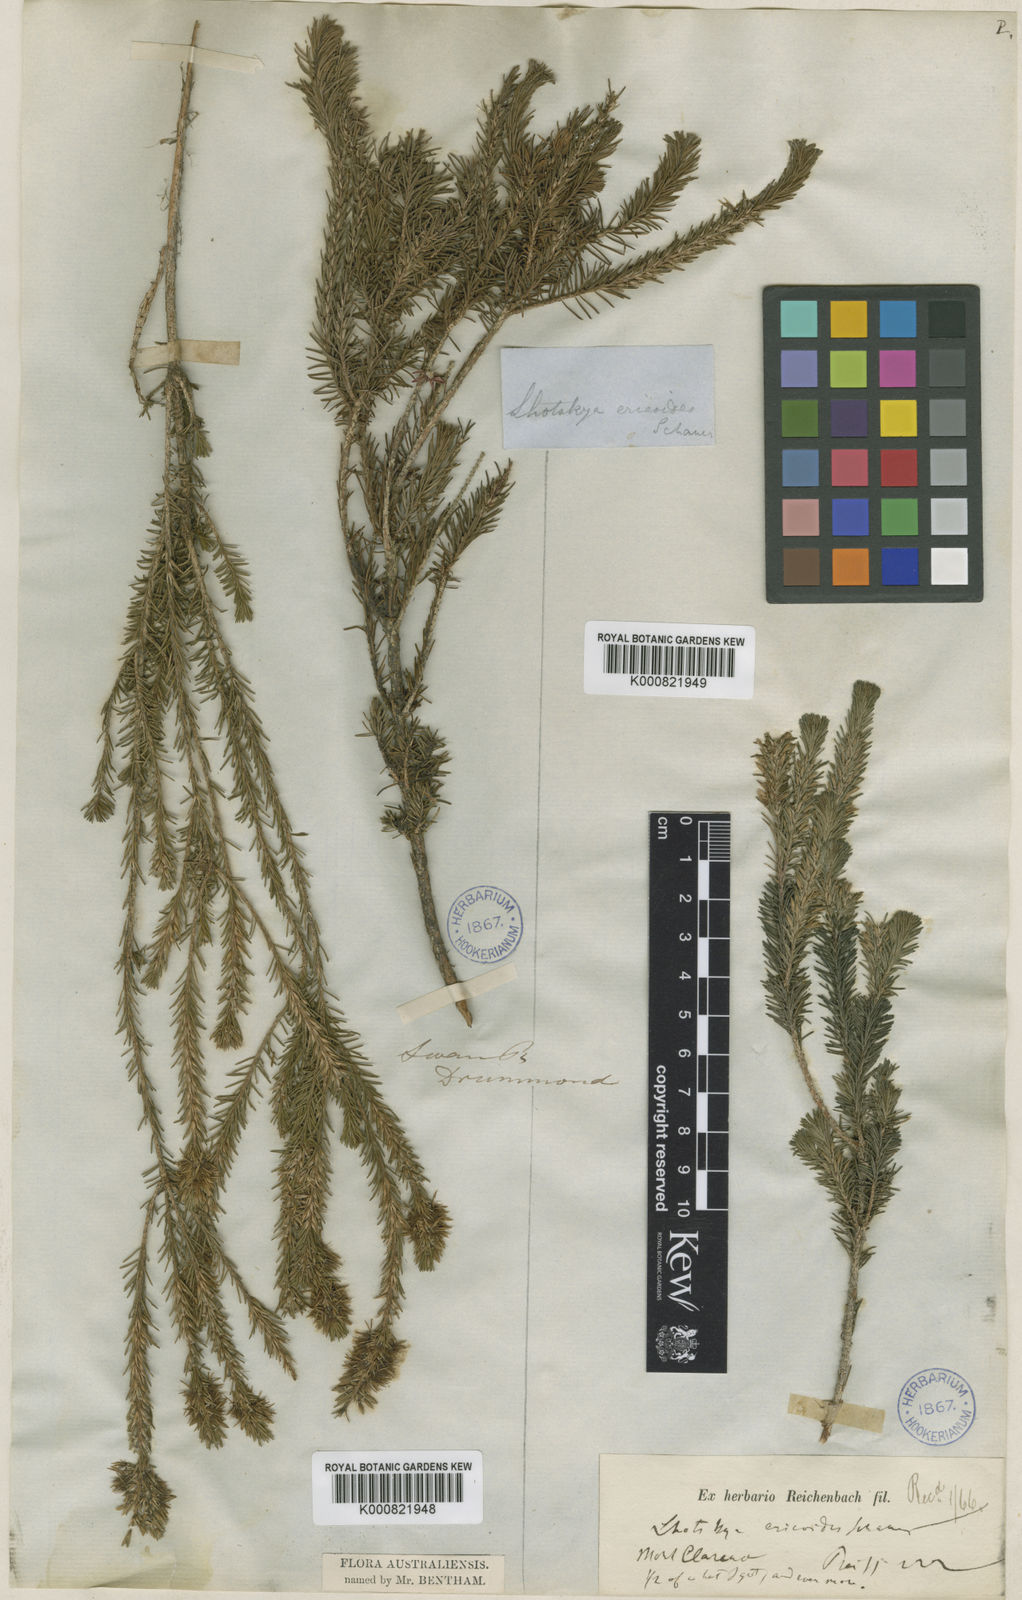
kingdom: Plantae
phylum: Tracheophyta
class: Magnoliopsida
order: Myrtales
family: Myrtaceae
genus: Calytrix
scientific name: Calytrix acutifolia
